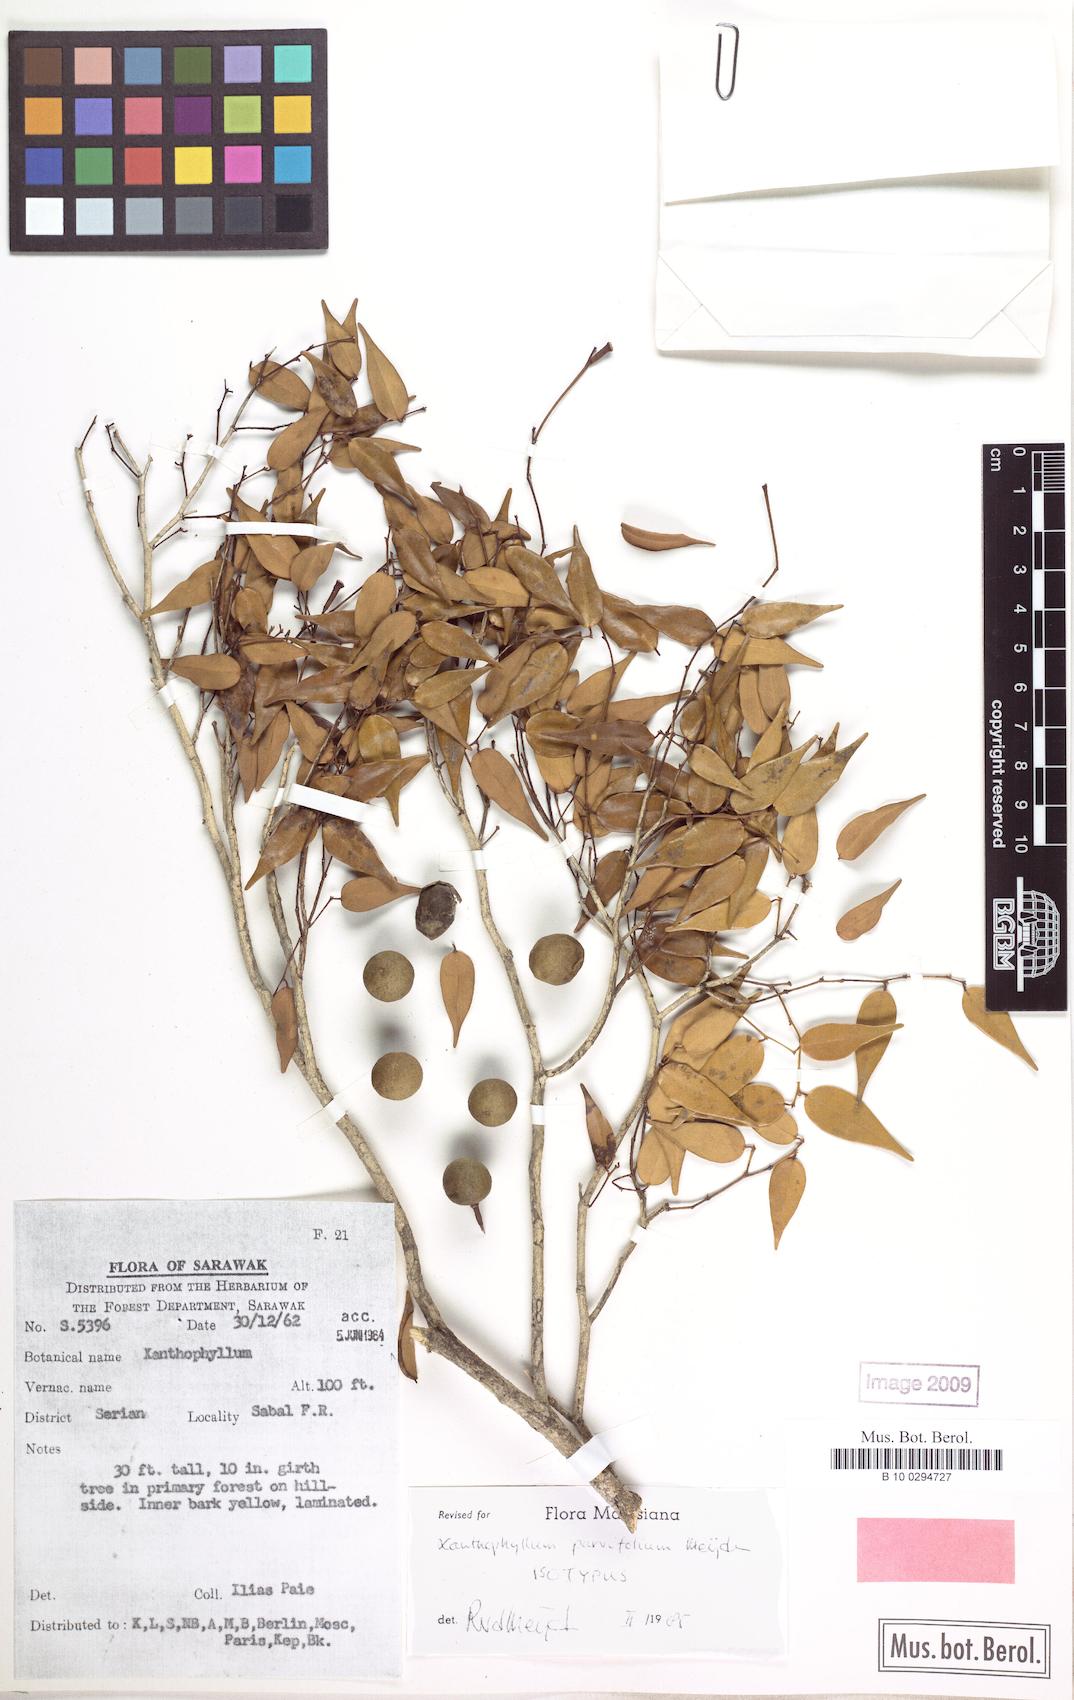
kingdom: Plantae
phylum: Tracheophyta
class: Magnoliopsida
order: Fabales
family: Polygalaceae
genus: Xanthophyllum
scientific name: Xanthophyllum parvifolium
